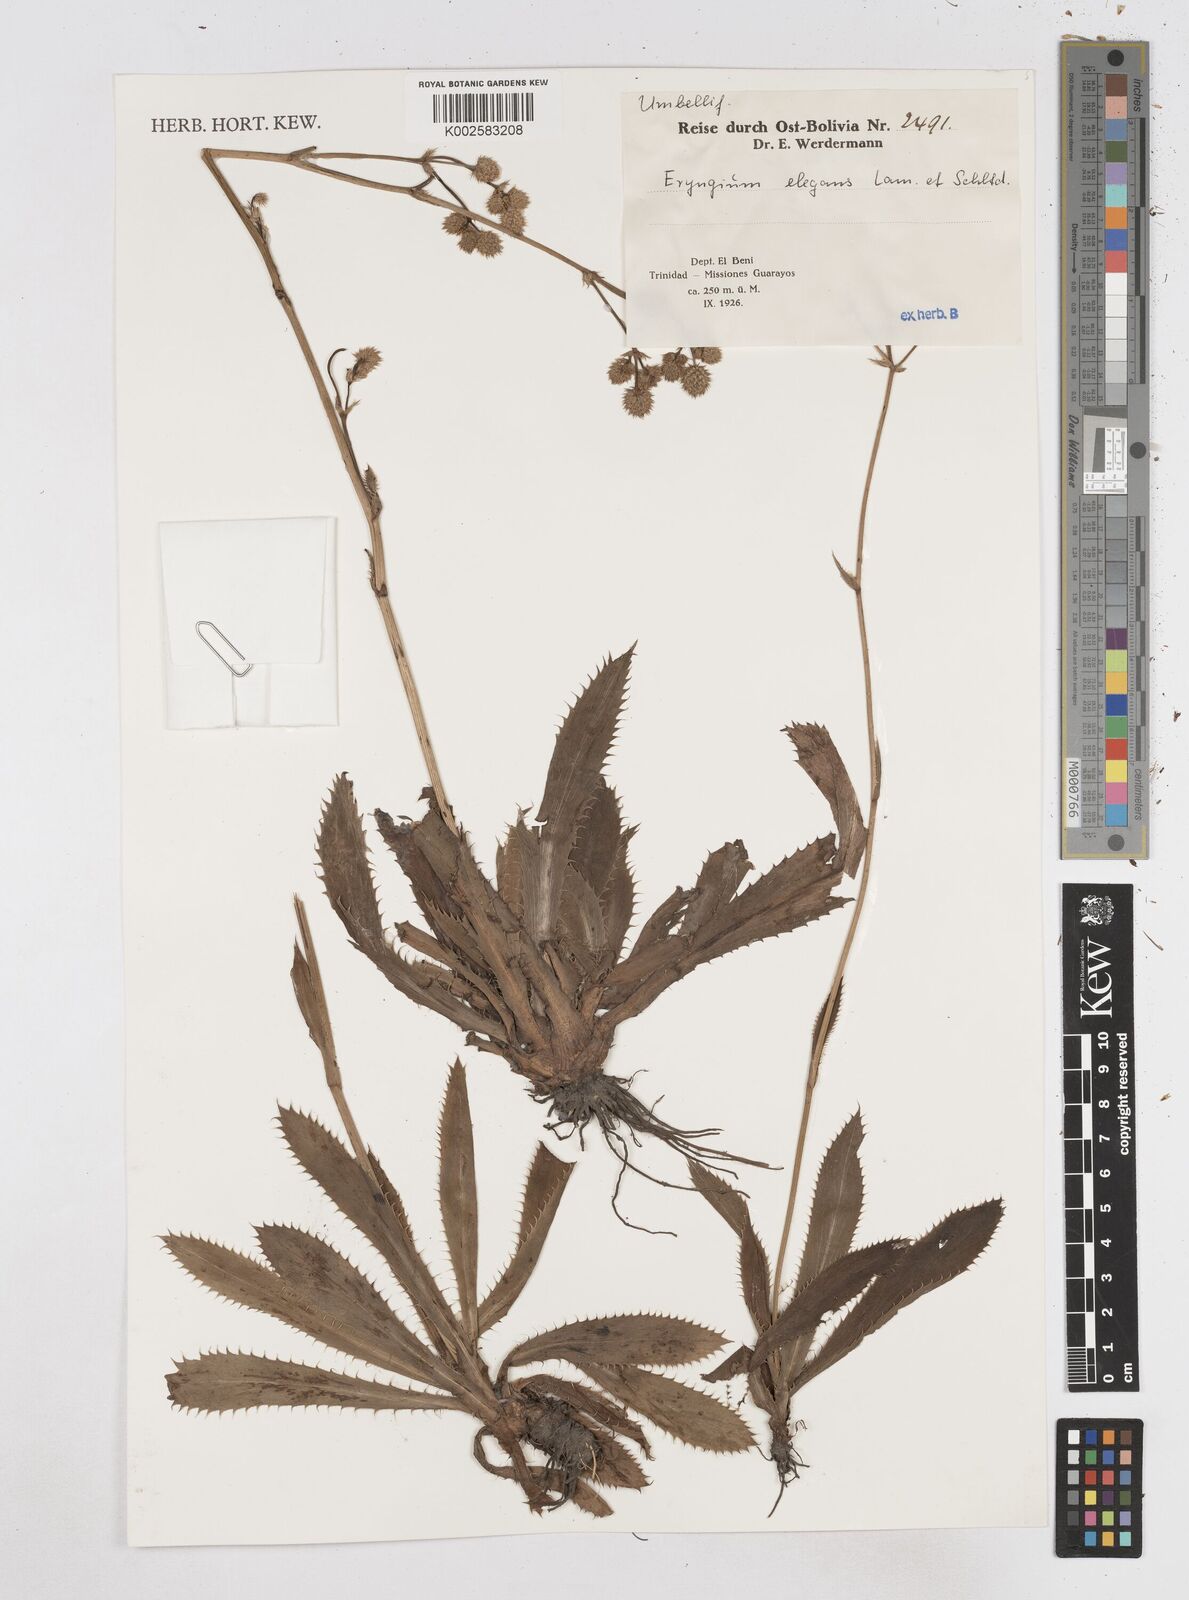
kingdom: Plantae
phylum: Tracheophyta
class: Magnoliopsida
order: Apiales
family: Apiaceae
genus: Eryngium
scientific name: Eryngium elegans
